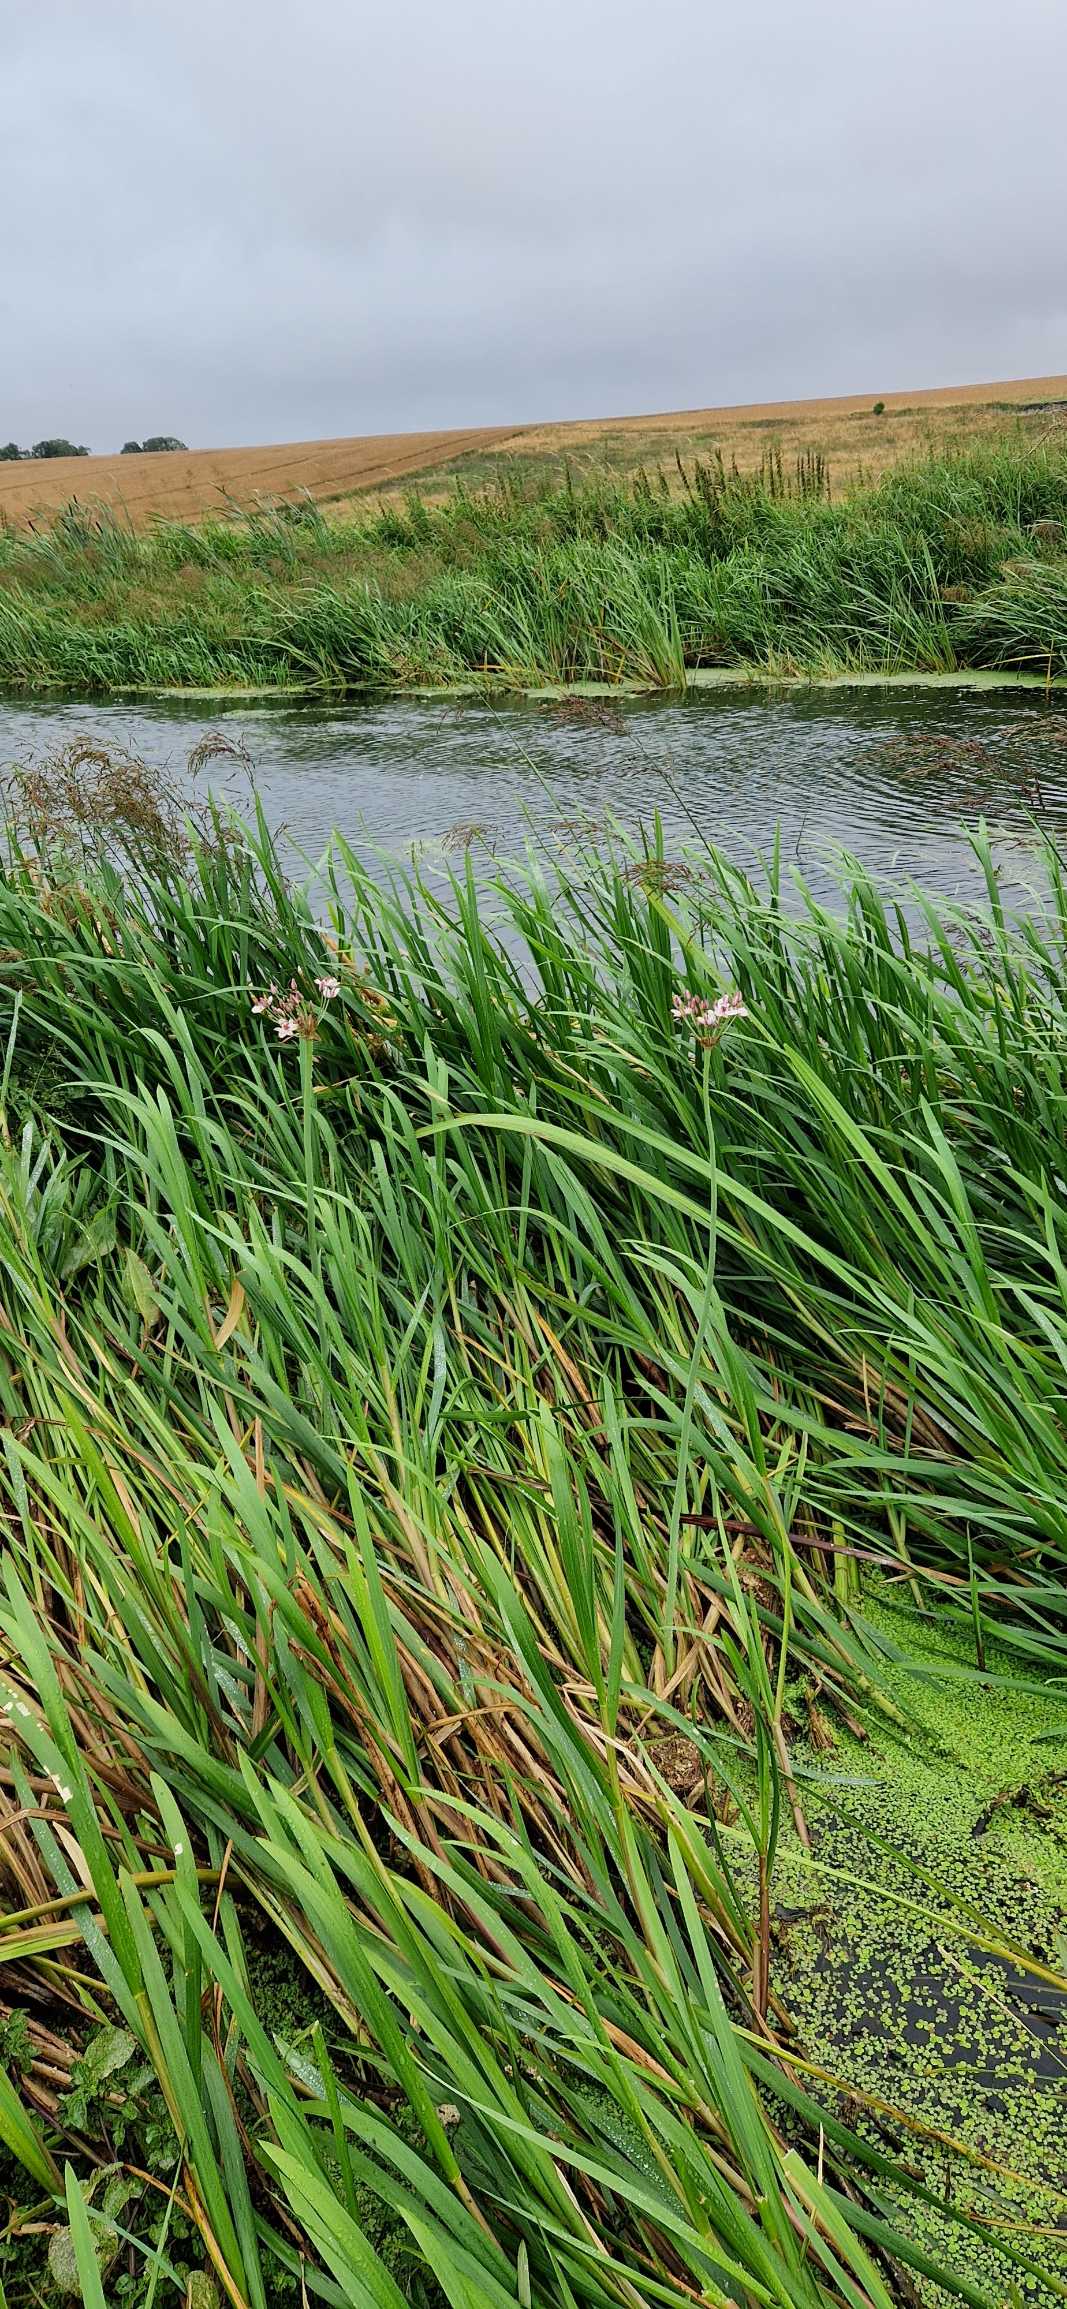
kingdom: Plantae
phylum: Tracheophyta
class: Liliopsida
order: Alismatales
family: Butomaceae
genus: Butomus
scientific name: Butomus umbellatus
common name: Brudelys
